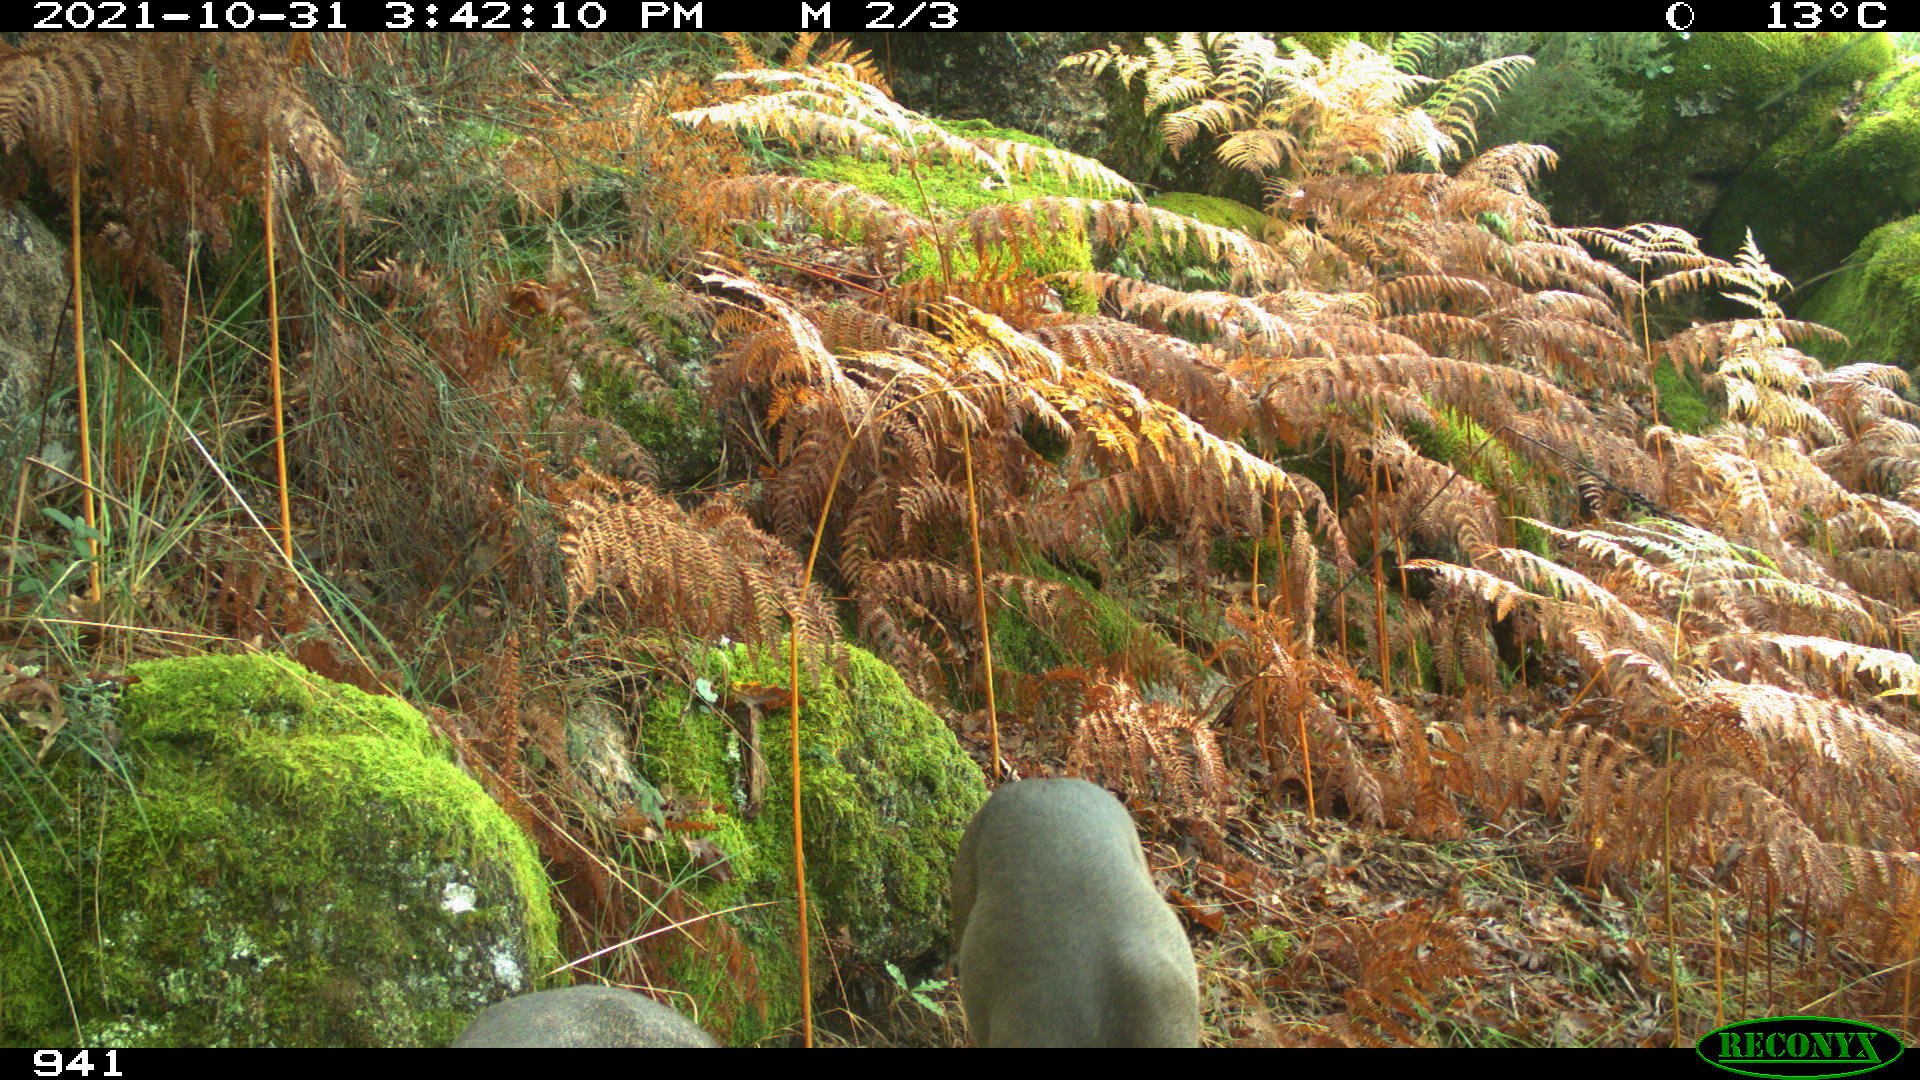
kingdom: Animalia
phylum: Chordata
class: Mammalia
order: Artiodactyla
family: Cervidae
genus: Capreolus
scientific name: Capreolus capreolus
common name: Western roe deer
